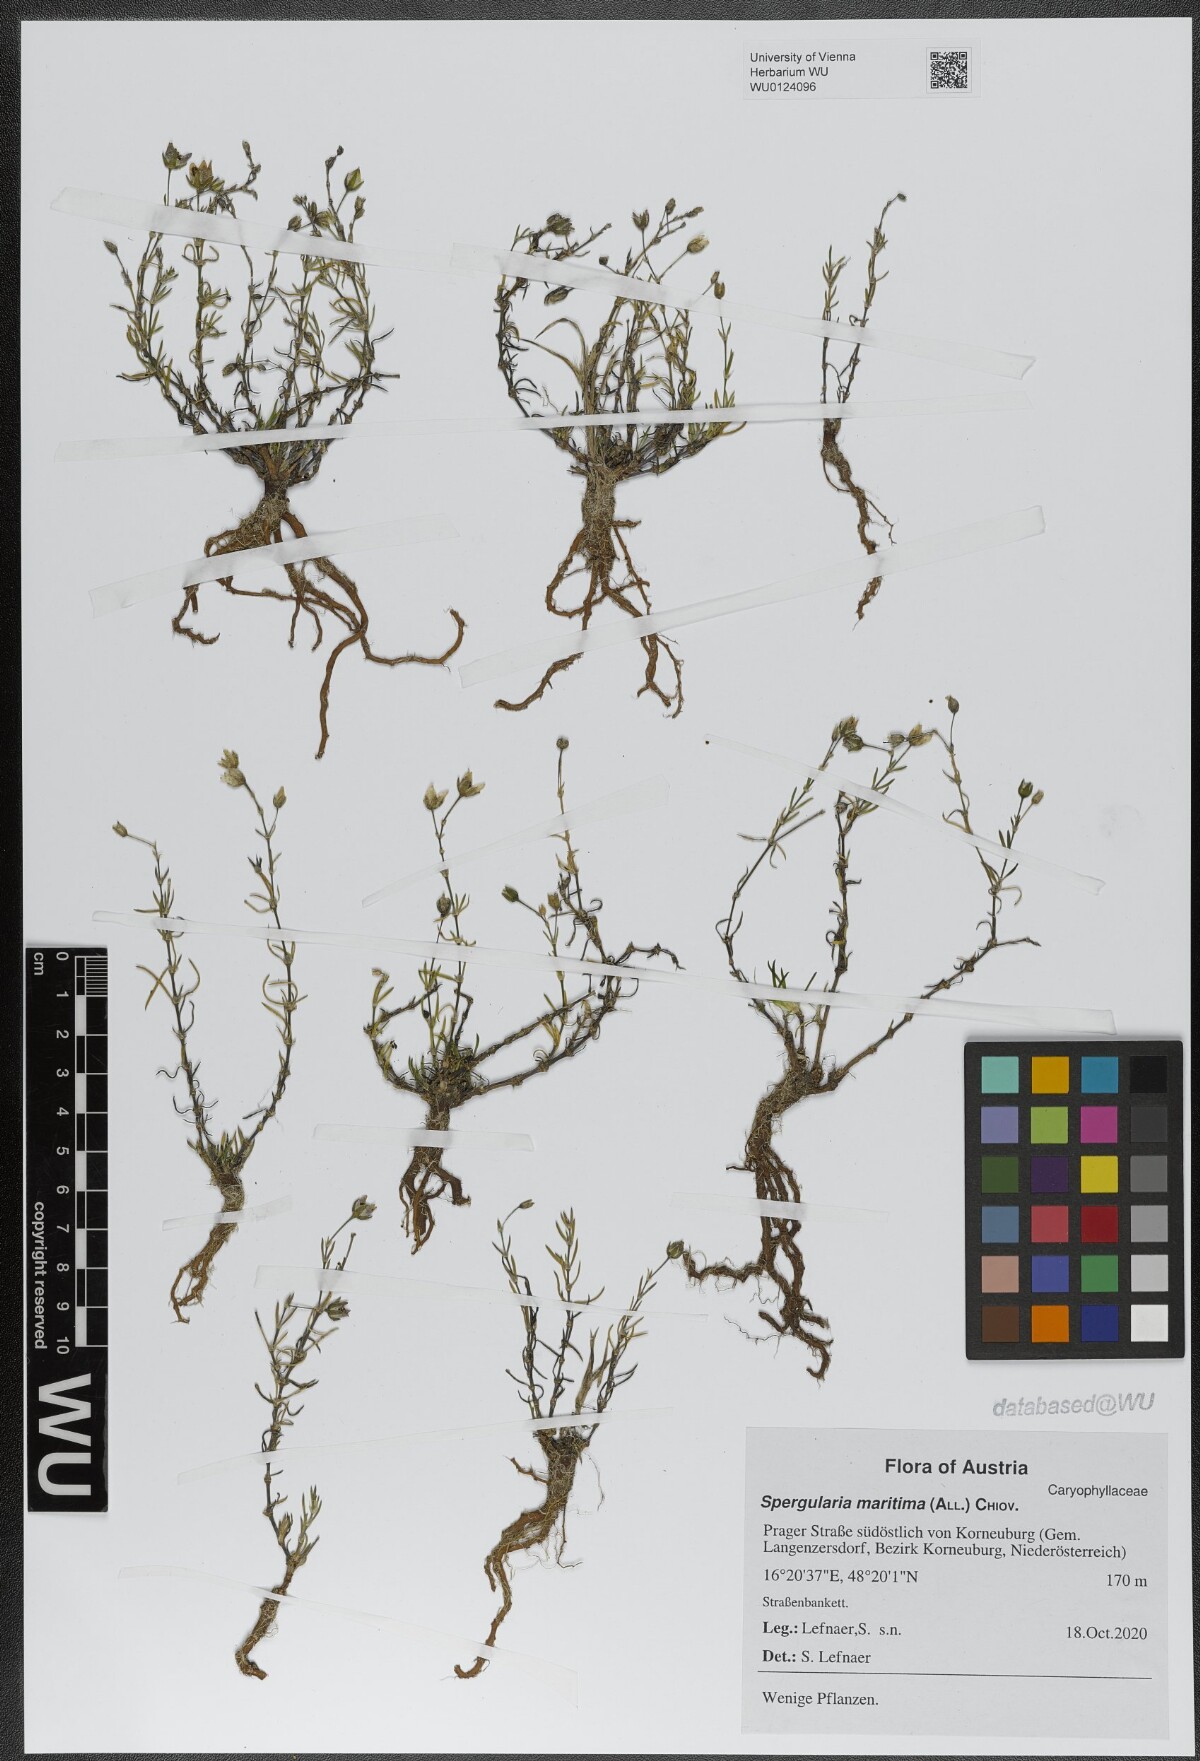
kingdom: Plantae
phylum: Tracheophyta
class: Magnoliopsida
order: Caryophyllales
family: Caryophyllaceae
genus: Spergularia
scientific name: Spergularia media
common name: Greater sea-spurrey
